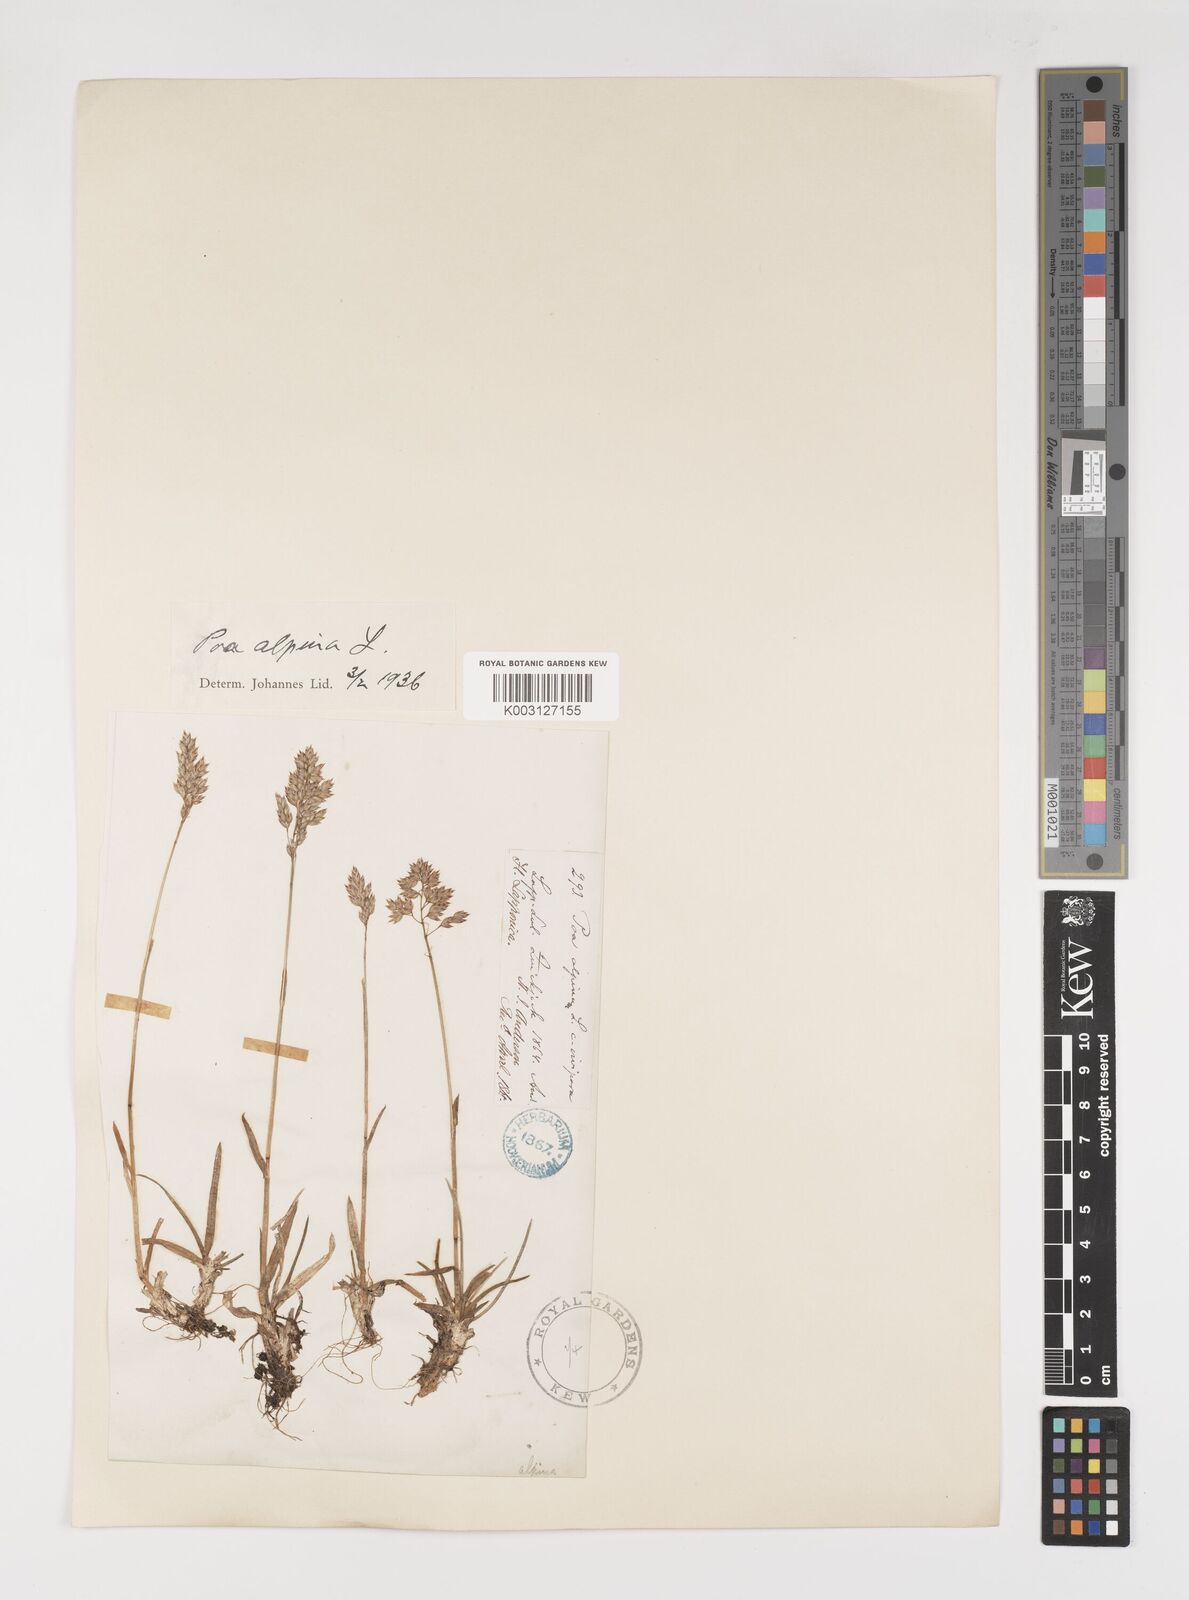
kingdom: Plantae
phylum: Tracheophyta
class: Liliopsida
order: Poales
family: Poaceae
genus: Poa
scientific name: Poa alpina
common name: Alpine bluegrass
